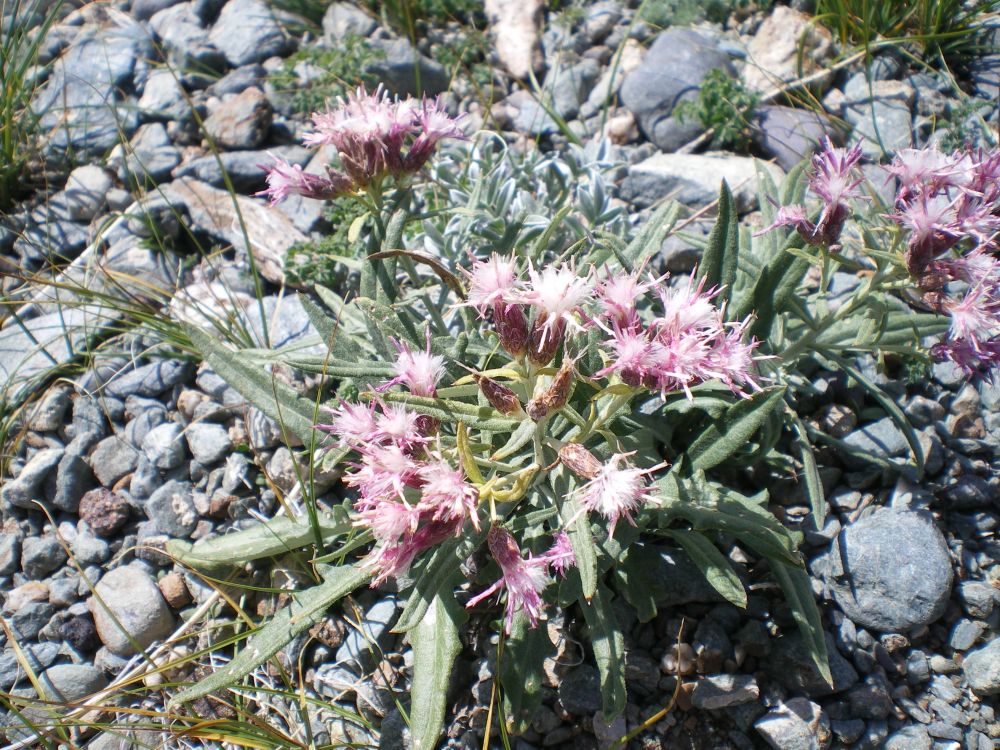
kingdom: Plantae
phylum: Tracheophyta
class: Magnoliopsida
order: Asterales
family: Asteraceae
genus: Saussurea
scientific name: Saussurea pricei
